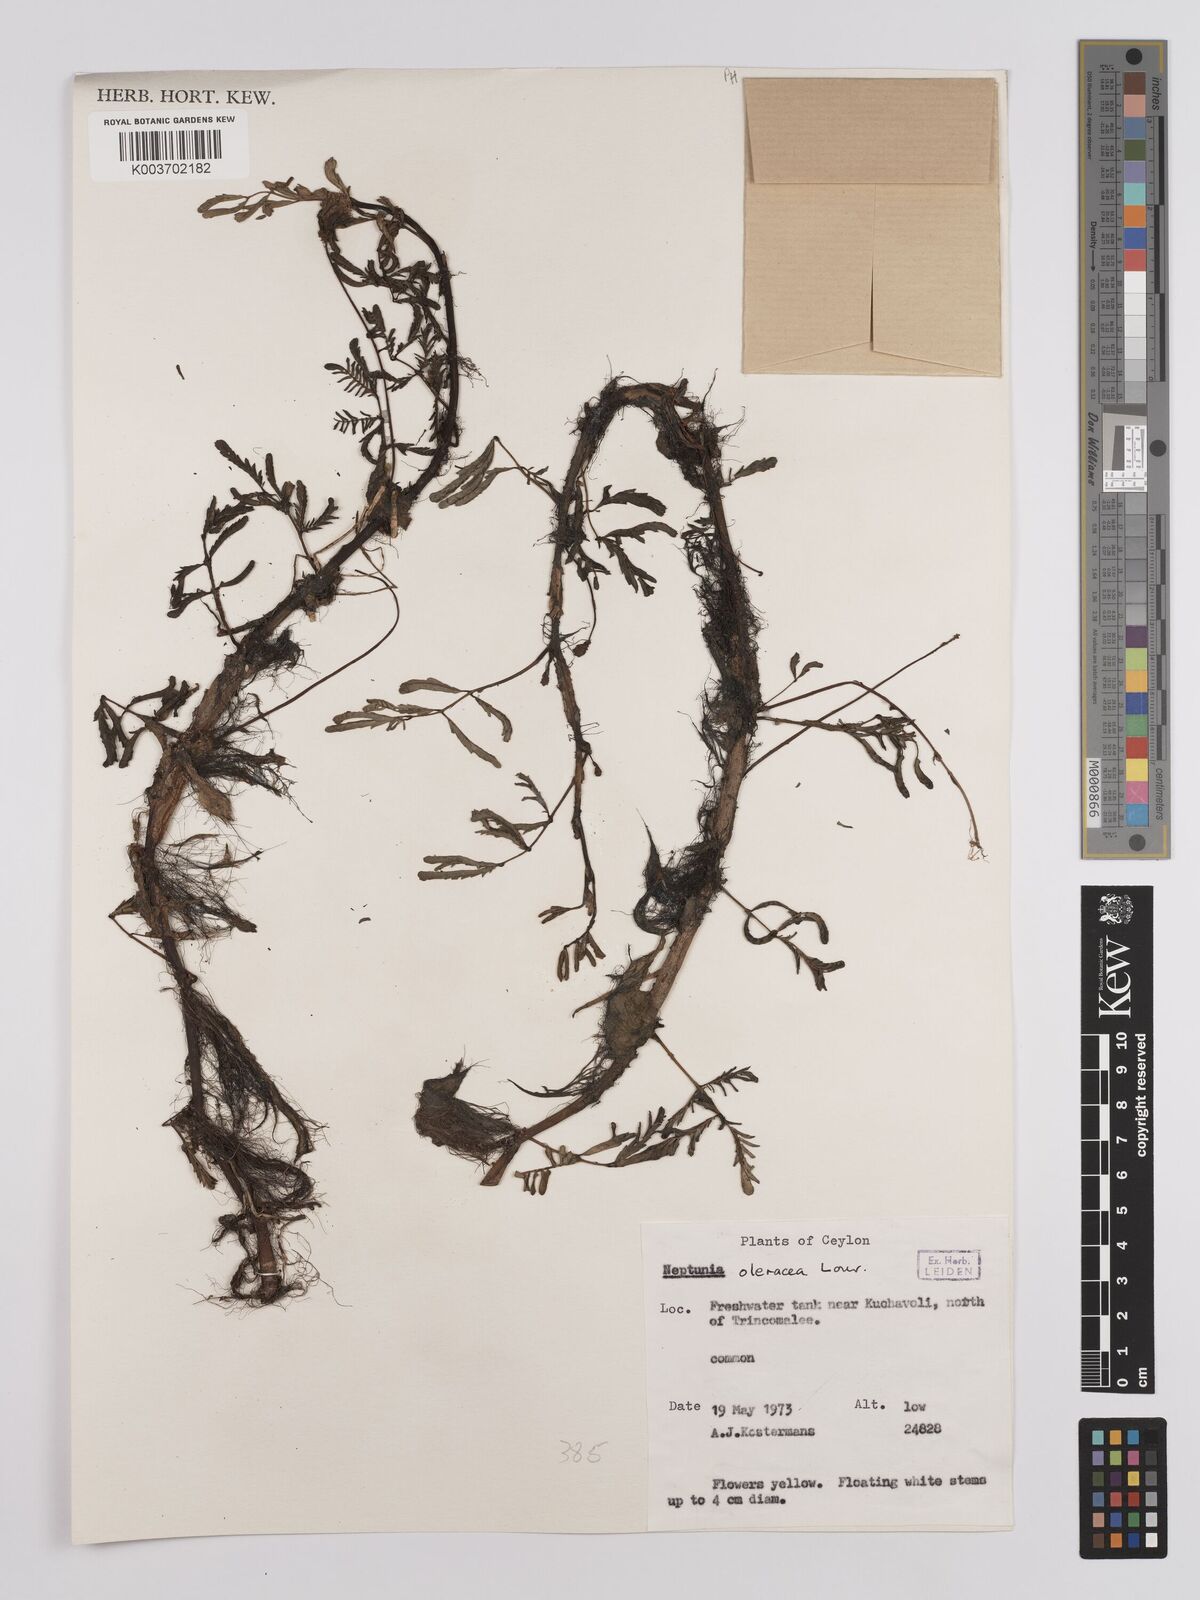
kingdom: Plantae
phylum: Tracheophyta
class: Magnoliopsida
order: Fabales
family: Fabaceae
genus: Neptunia
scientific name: Neptunia prostrata
